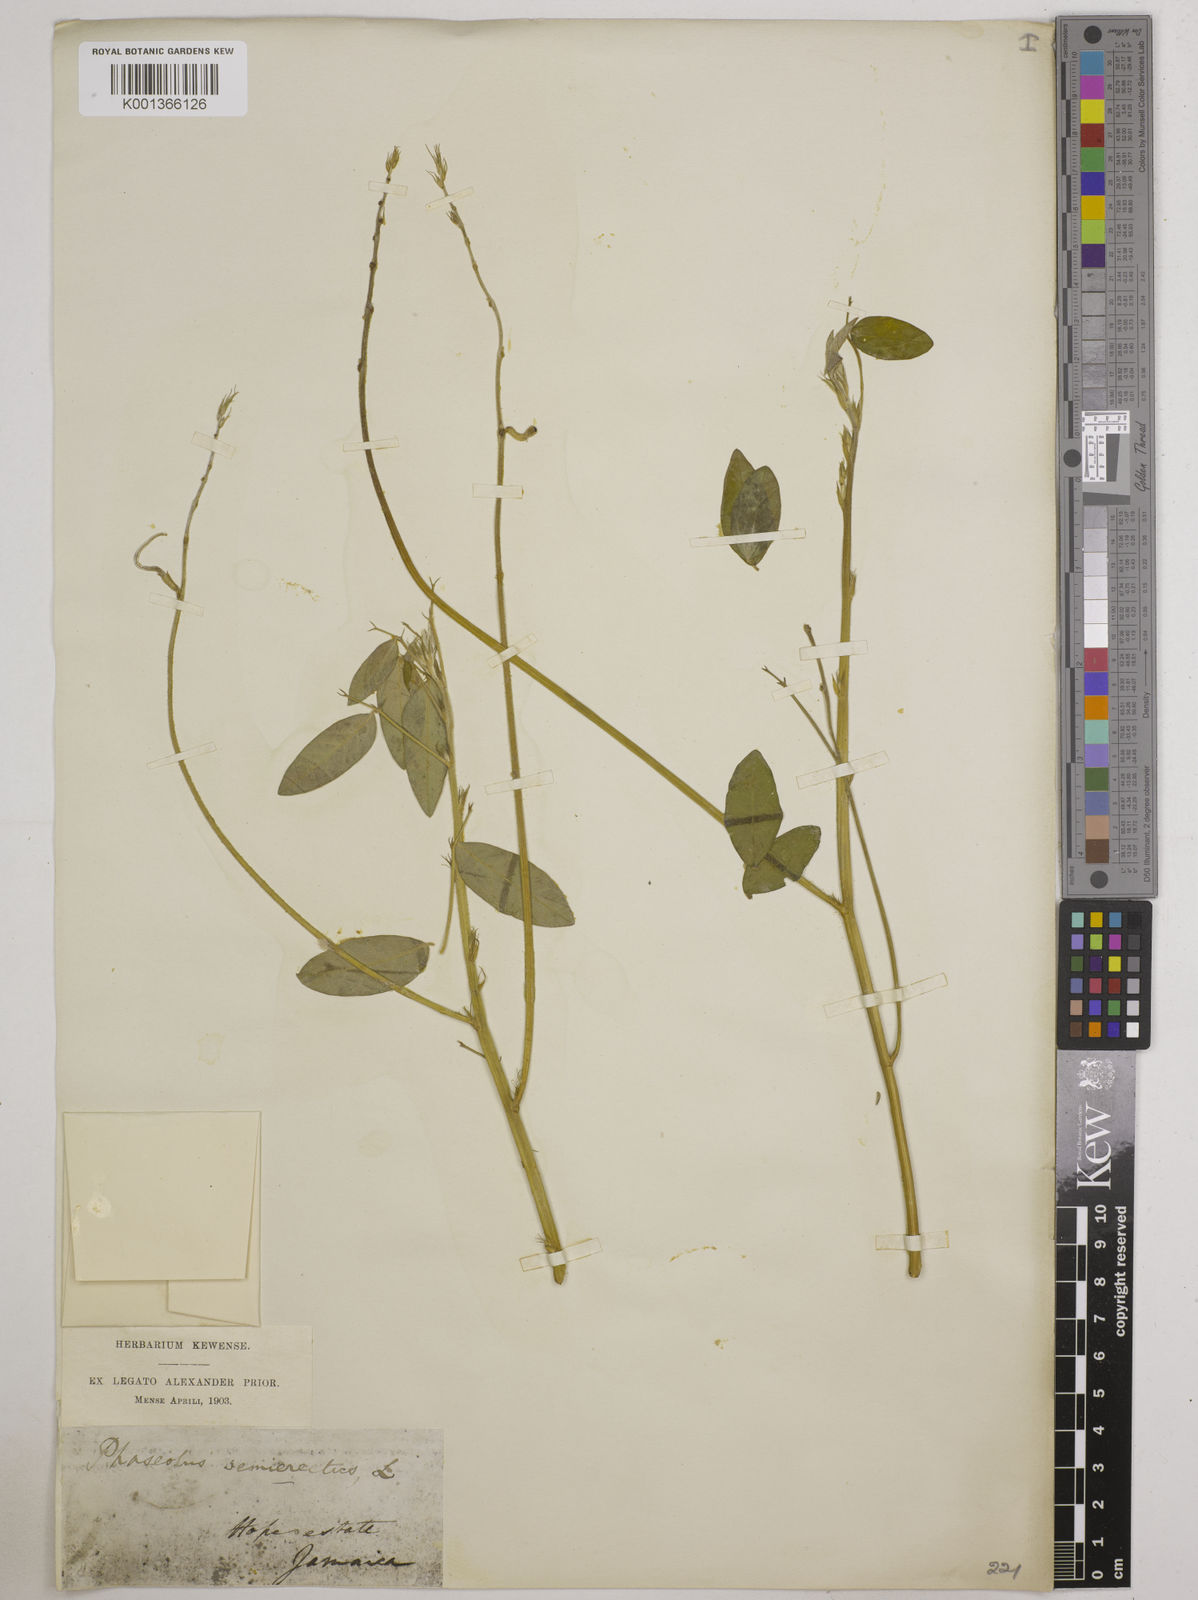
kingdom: Plantae
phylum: Tracheophyta
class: Magnoliopsida
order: Fabales
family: Fabaceae
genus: Macroptilium
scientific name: Macroptilium lathyroides
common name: Wild bushbean
